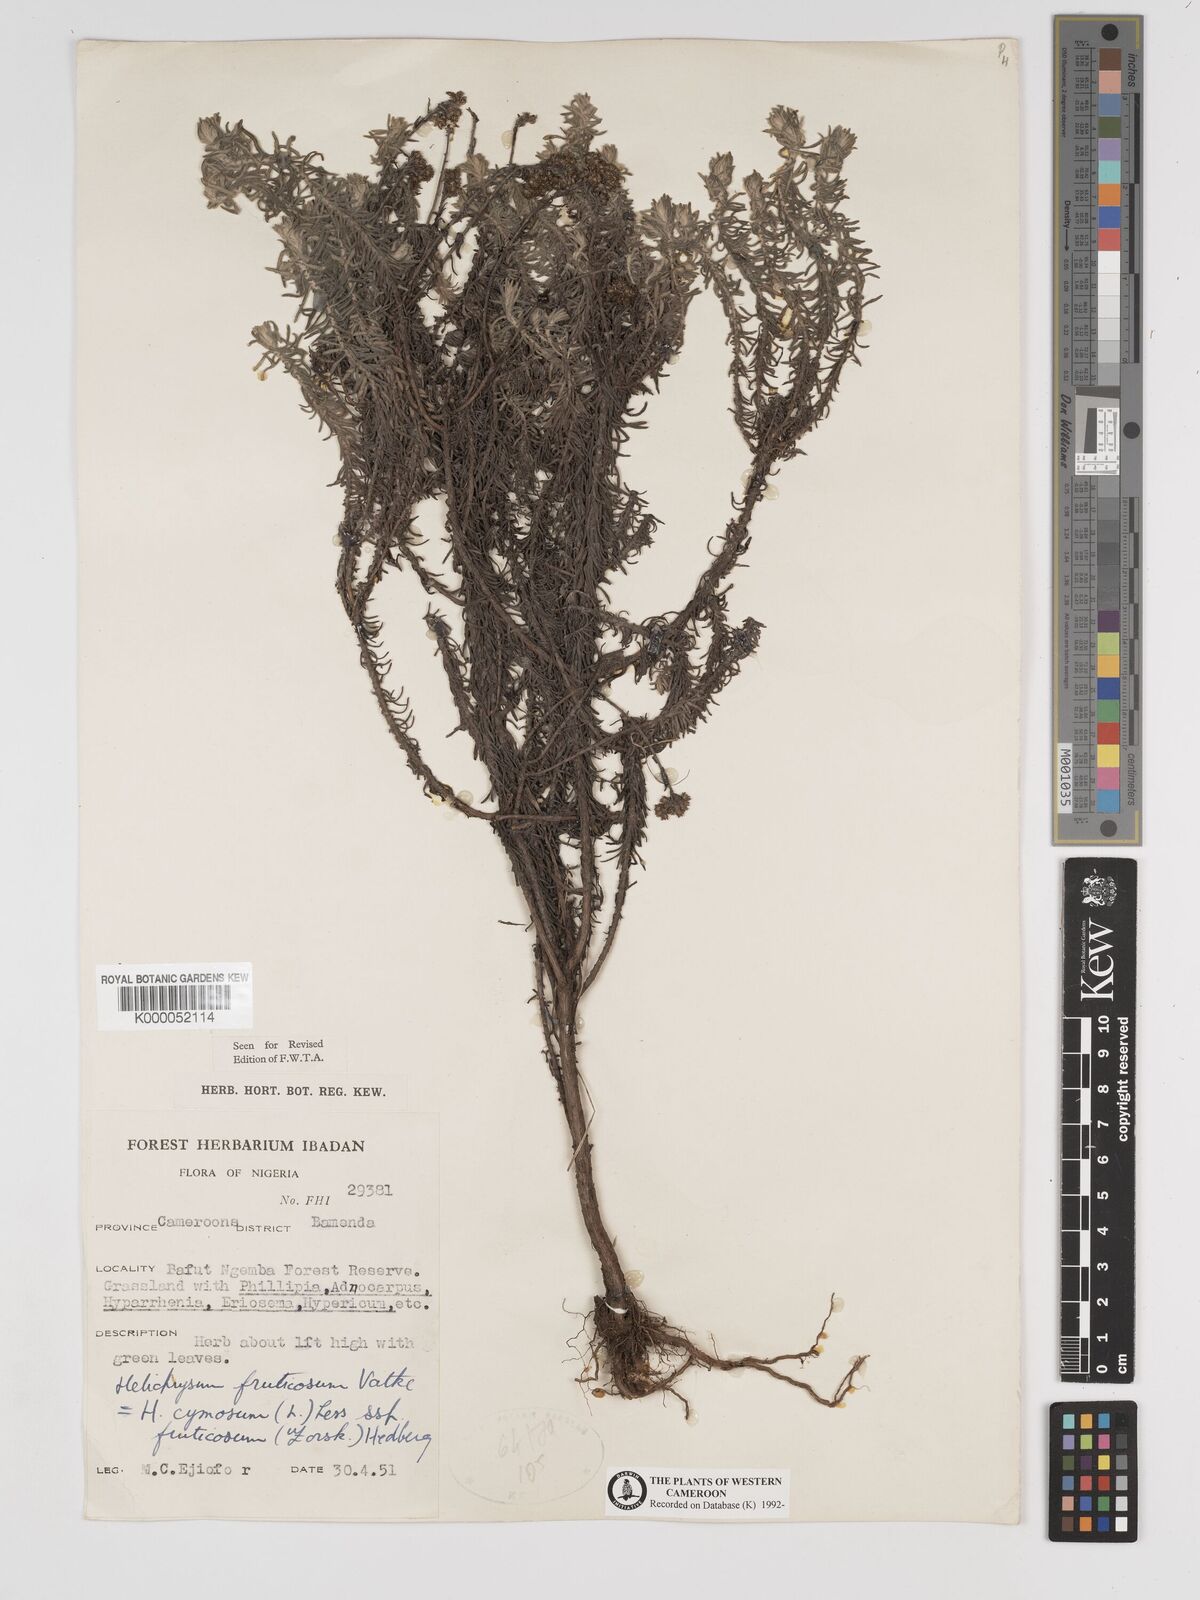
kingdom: Plantae
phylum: Tracheophyta
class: Magnoliopsida
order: Asterales
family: Asteraceae
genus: Helichrysum
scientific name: Helichrysum forskahlii
